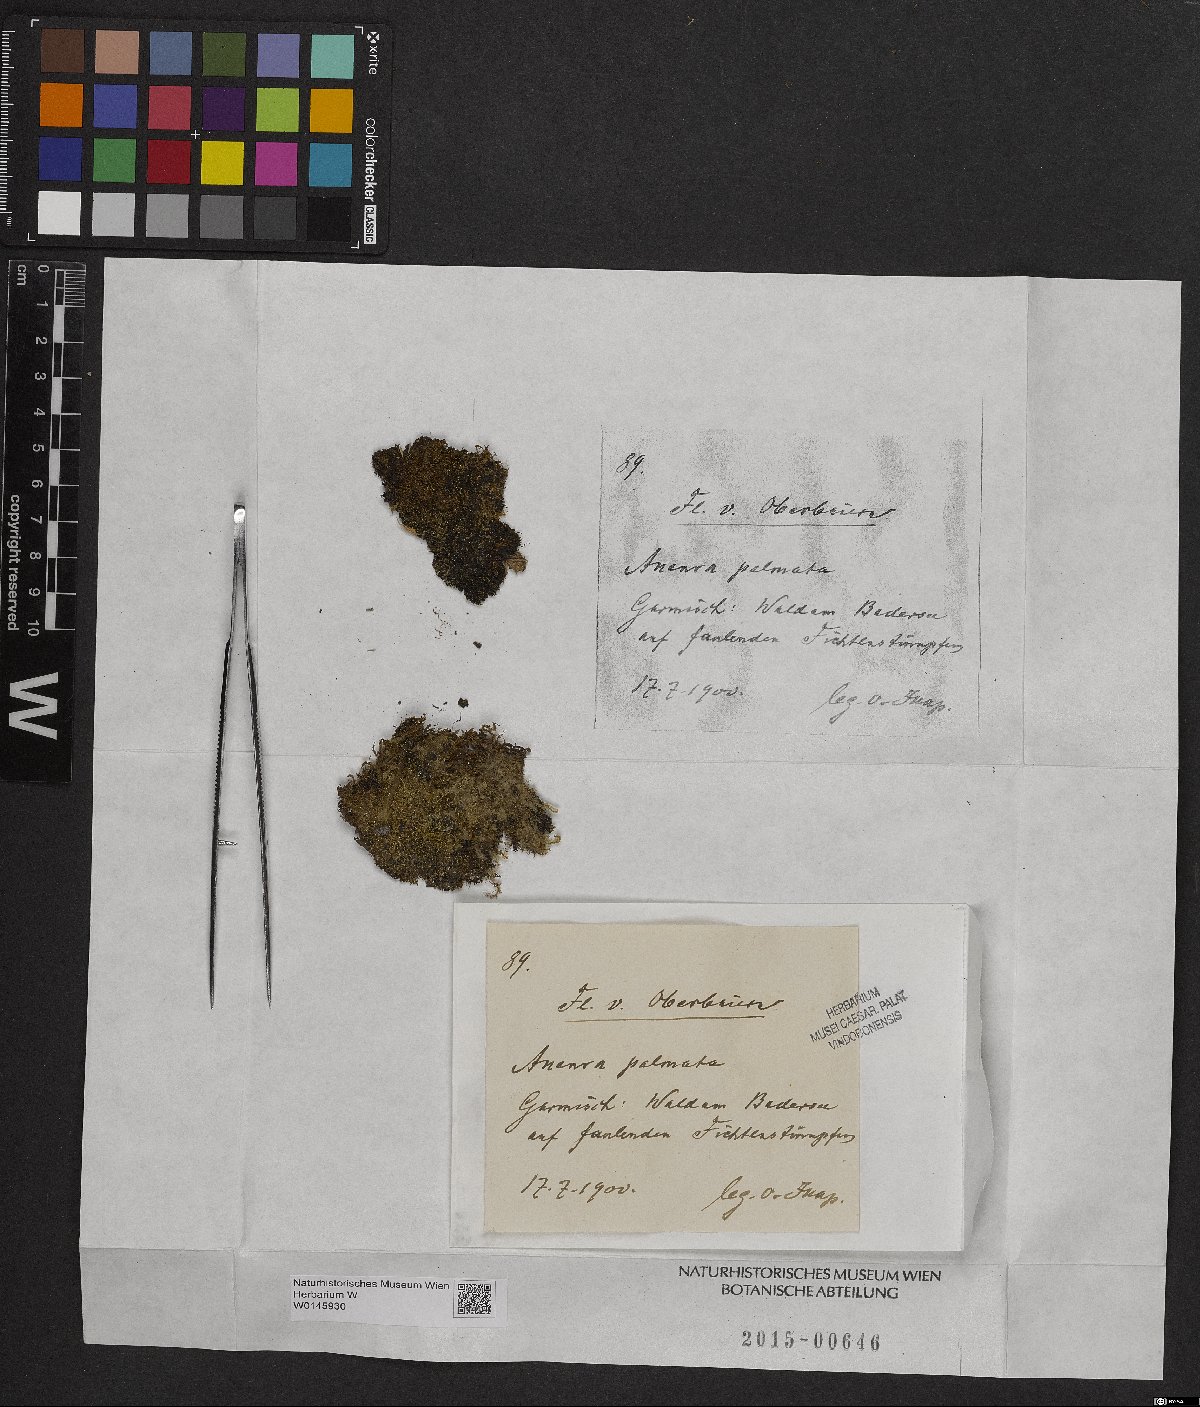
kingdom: Plantae
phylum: Marchantiophyta
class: Jungermanniopsida
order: Metzgeriales
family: Aneuraceae
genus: Riccardia
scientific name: Riccardia palmata
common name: Palmate germanderwort
